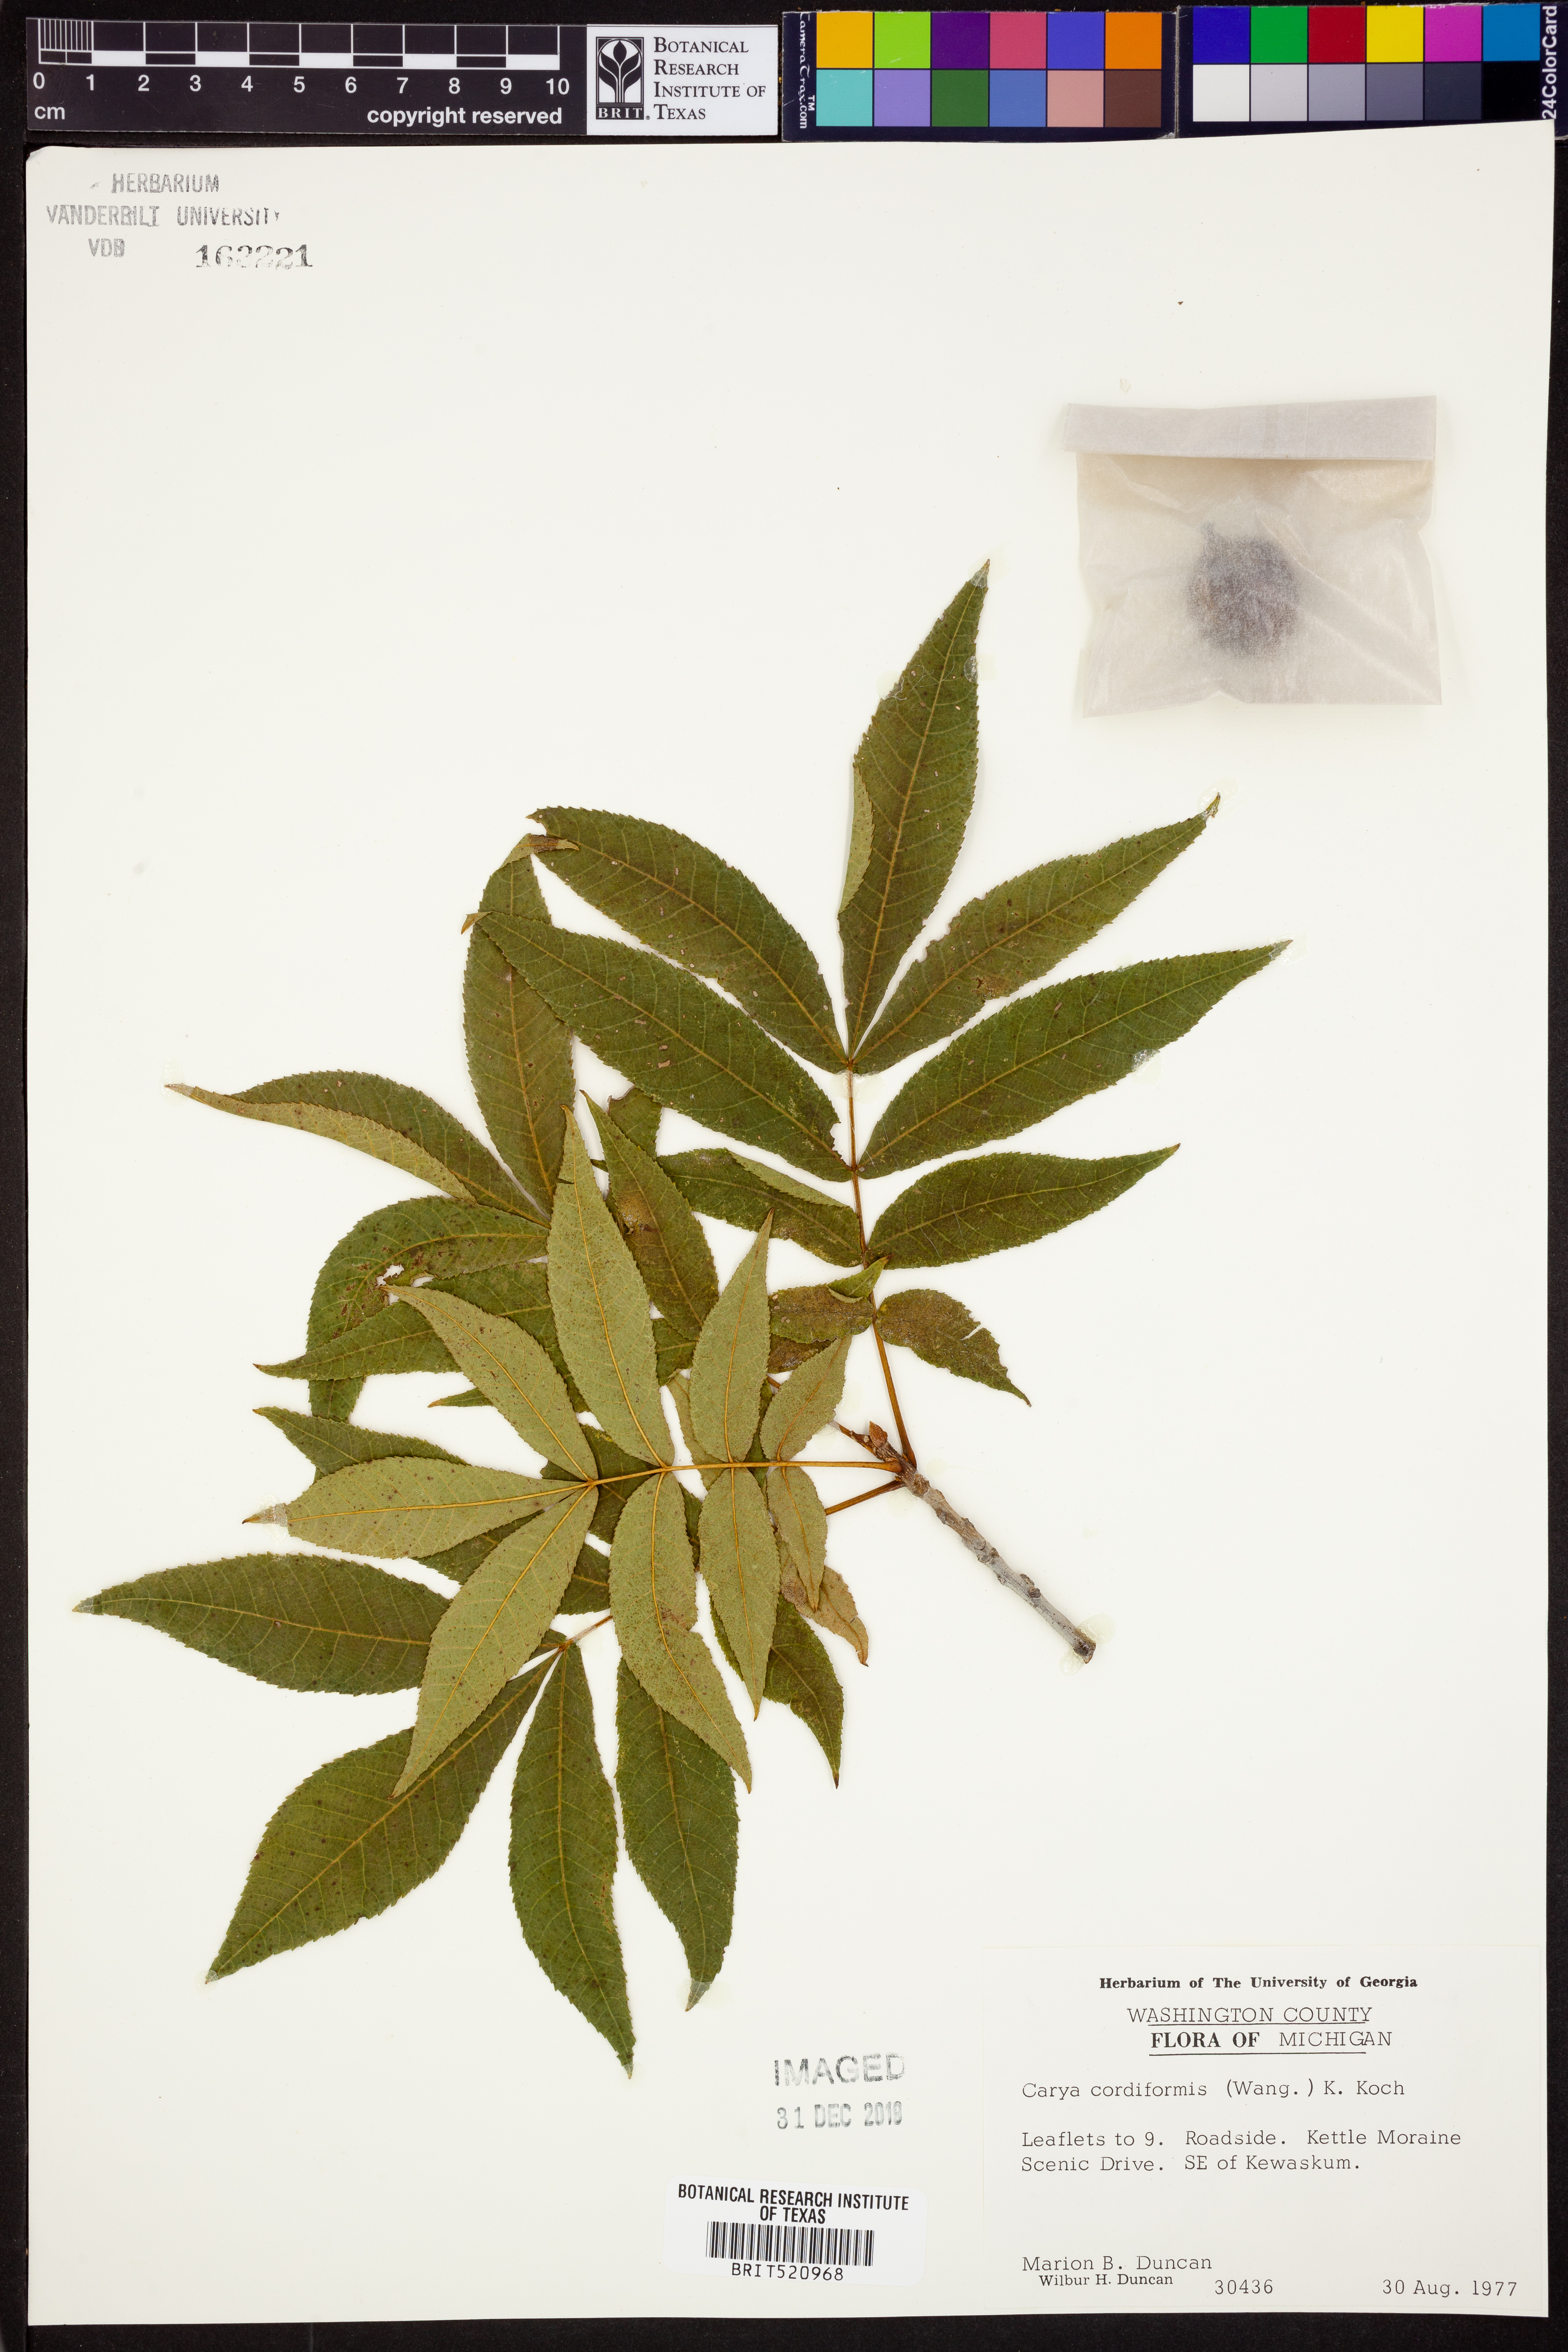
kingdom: Plantae
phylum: Tracheophyta
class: Magnoliopsida
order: Fagales
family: Juglandaceae
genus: Carya
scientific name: Carya cordiformis
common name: Bitternut hickory
